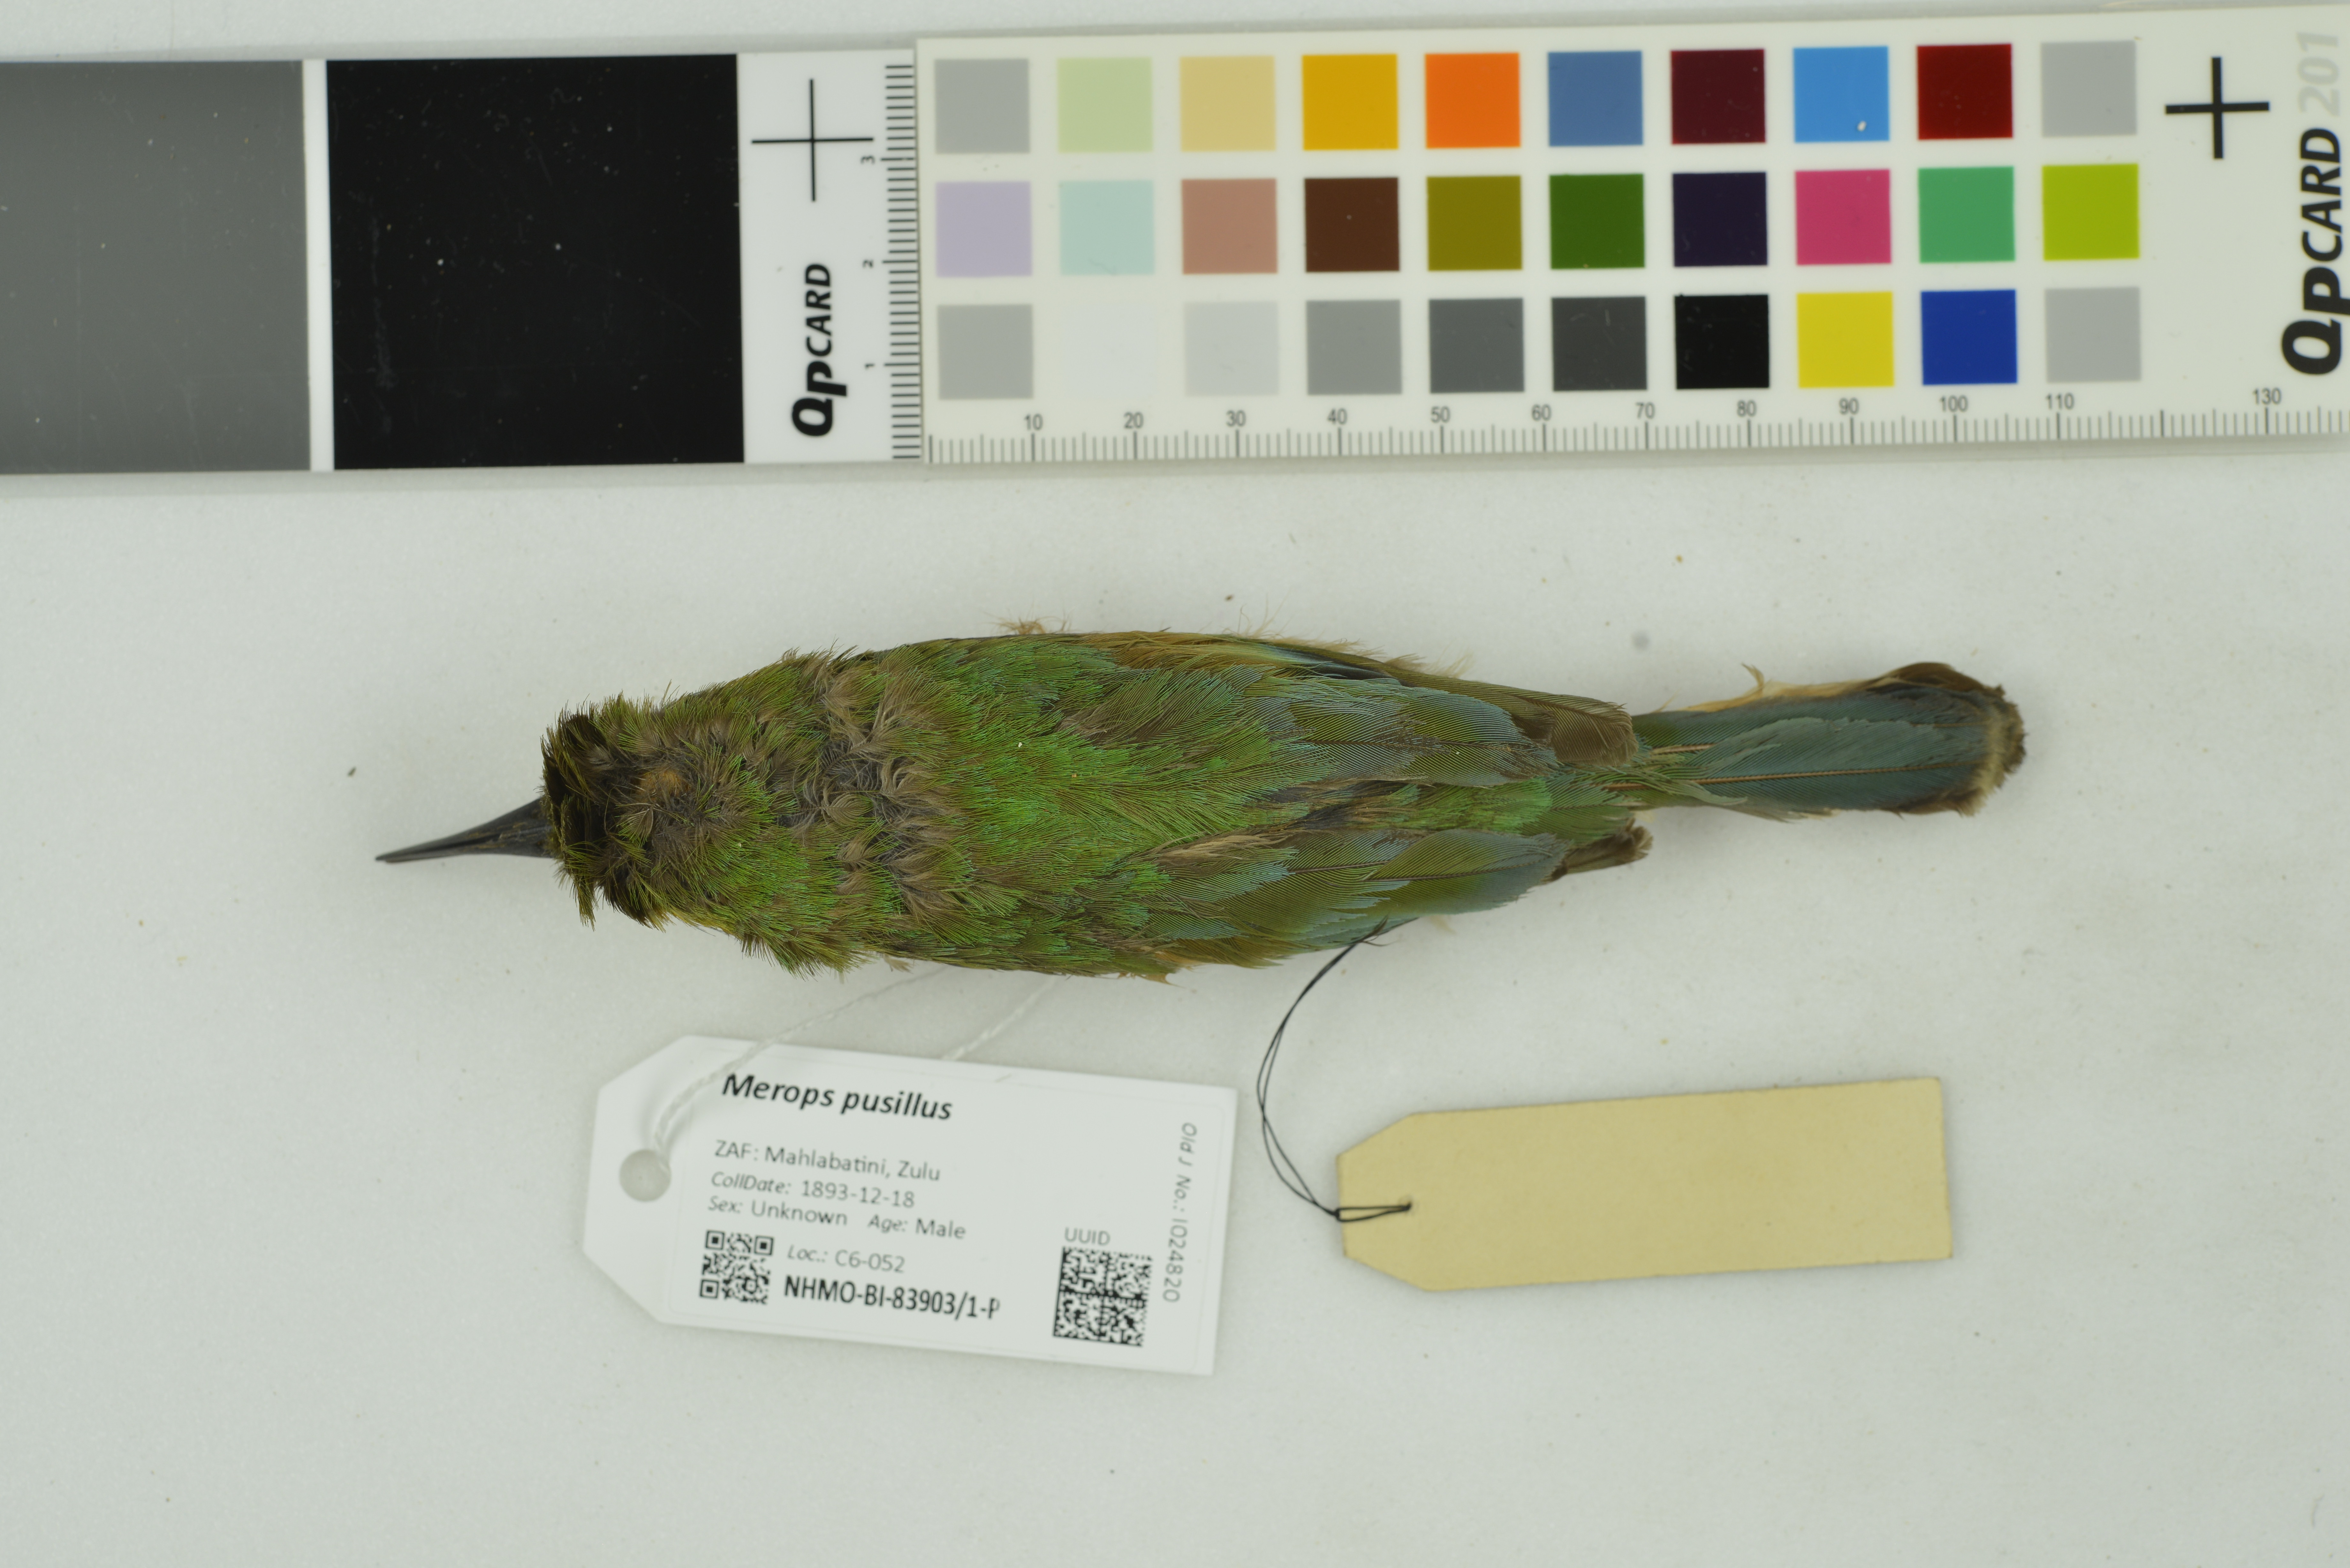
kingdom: Animalia
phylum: Chordata
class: Aves
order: Coraciiformes
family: Meropidae
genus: Merops
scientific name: Merops pusillus
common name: Little bee-eater
